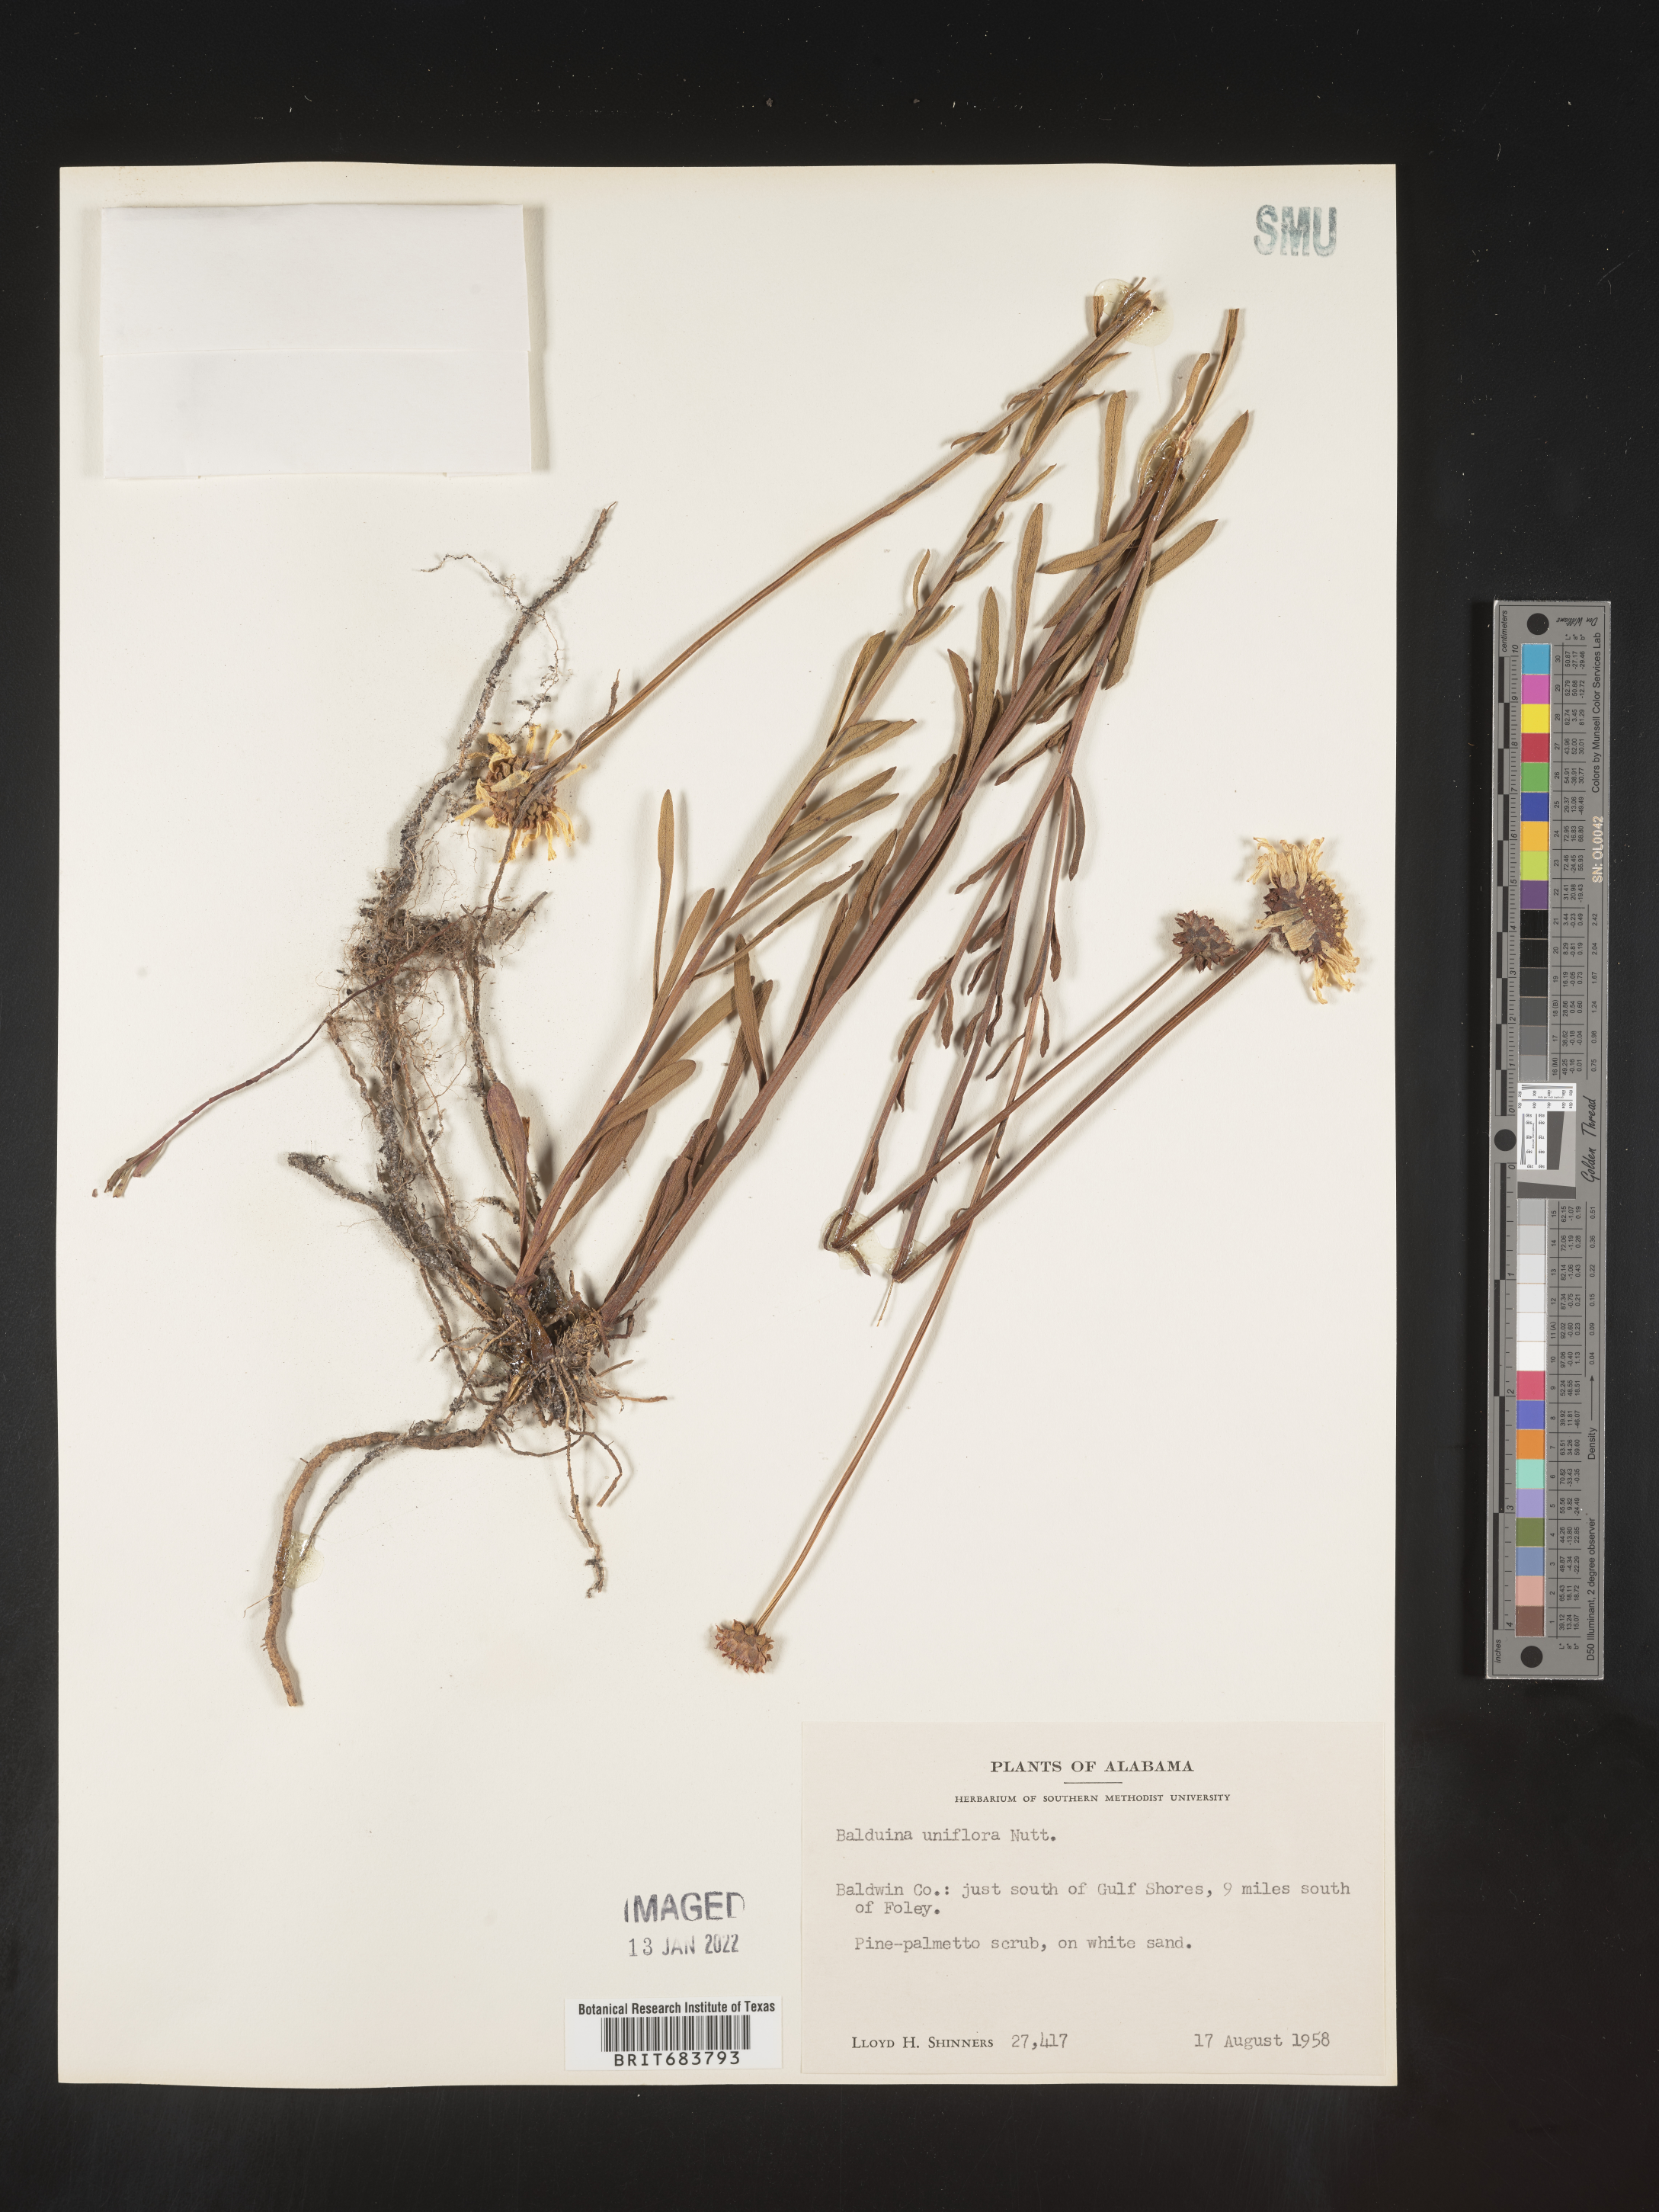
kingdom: Plantae
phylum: Tracheophyta
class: Magnoliopsida
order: Asterales
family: Asteraceae
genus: Balduina
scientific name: Balduina uniflora
